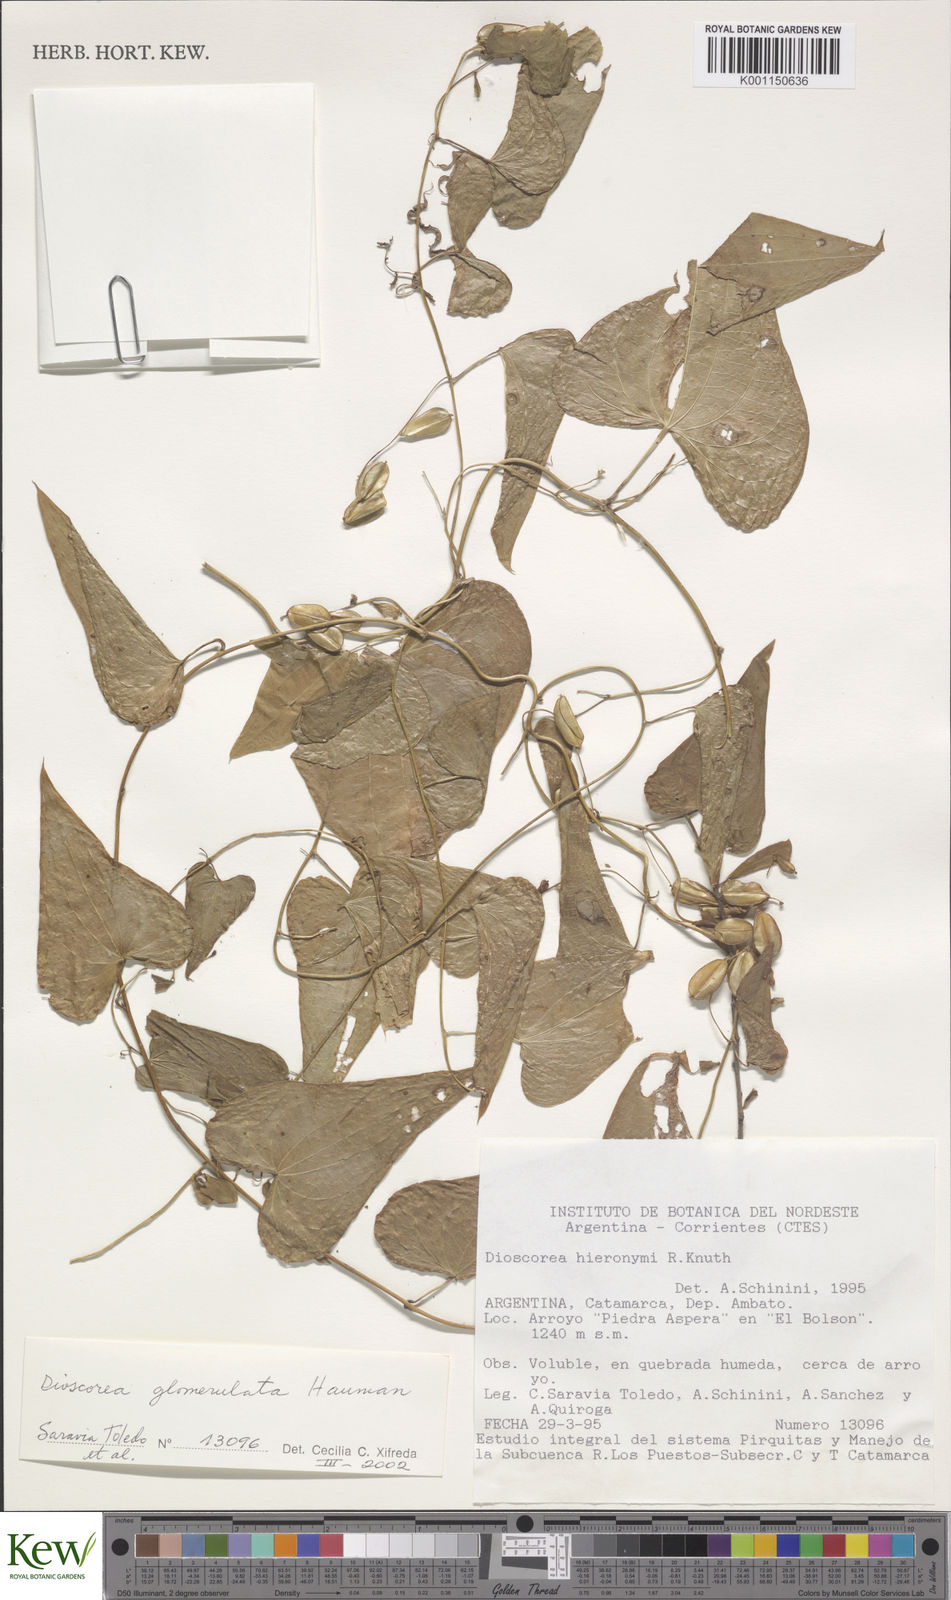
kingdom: Plantae
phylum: Tracheophyta
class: Liliopsida
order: Dioscoreales
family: Dioscoreaceae
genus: Dioscorea
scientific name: Dioscorea glomerulata
